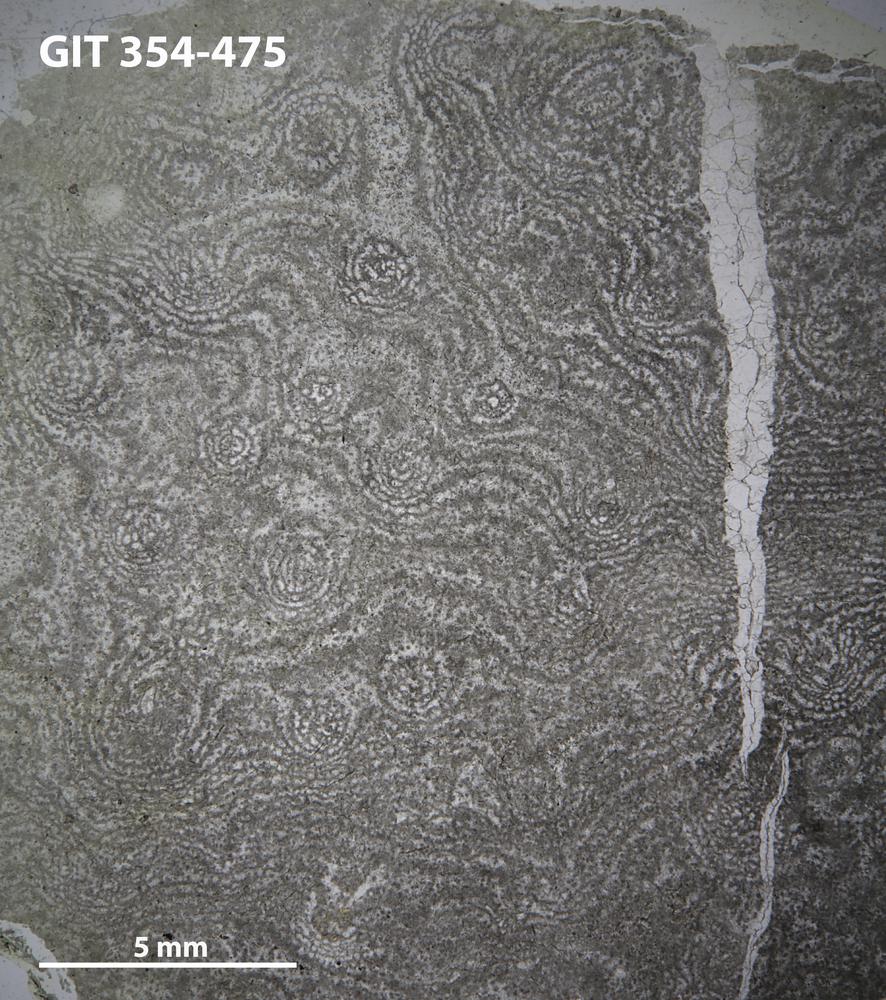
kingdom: Animalia
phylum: Porifera
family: Gerronostromatidae
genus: Petridiostroma
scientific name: Petridiostroma Stromatopora regularis
